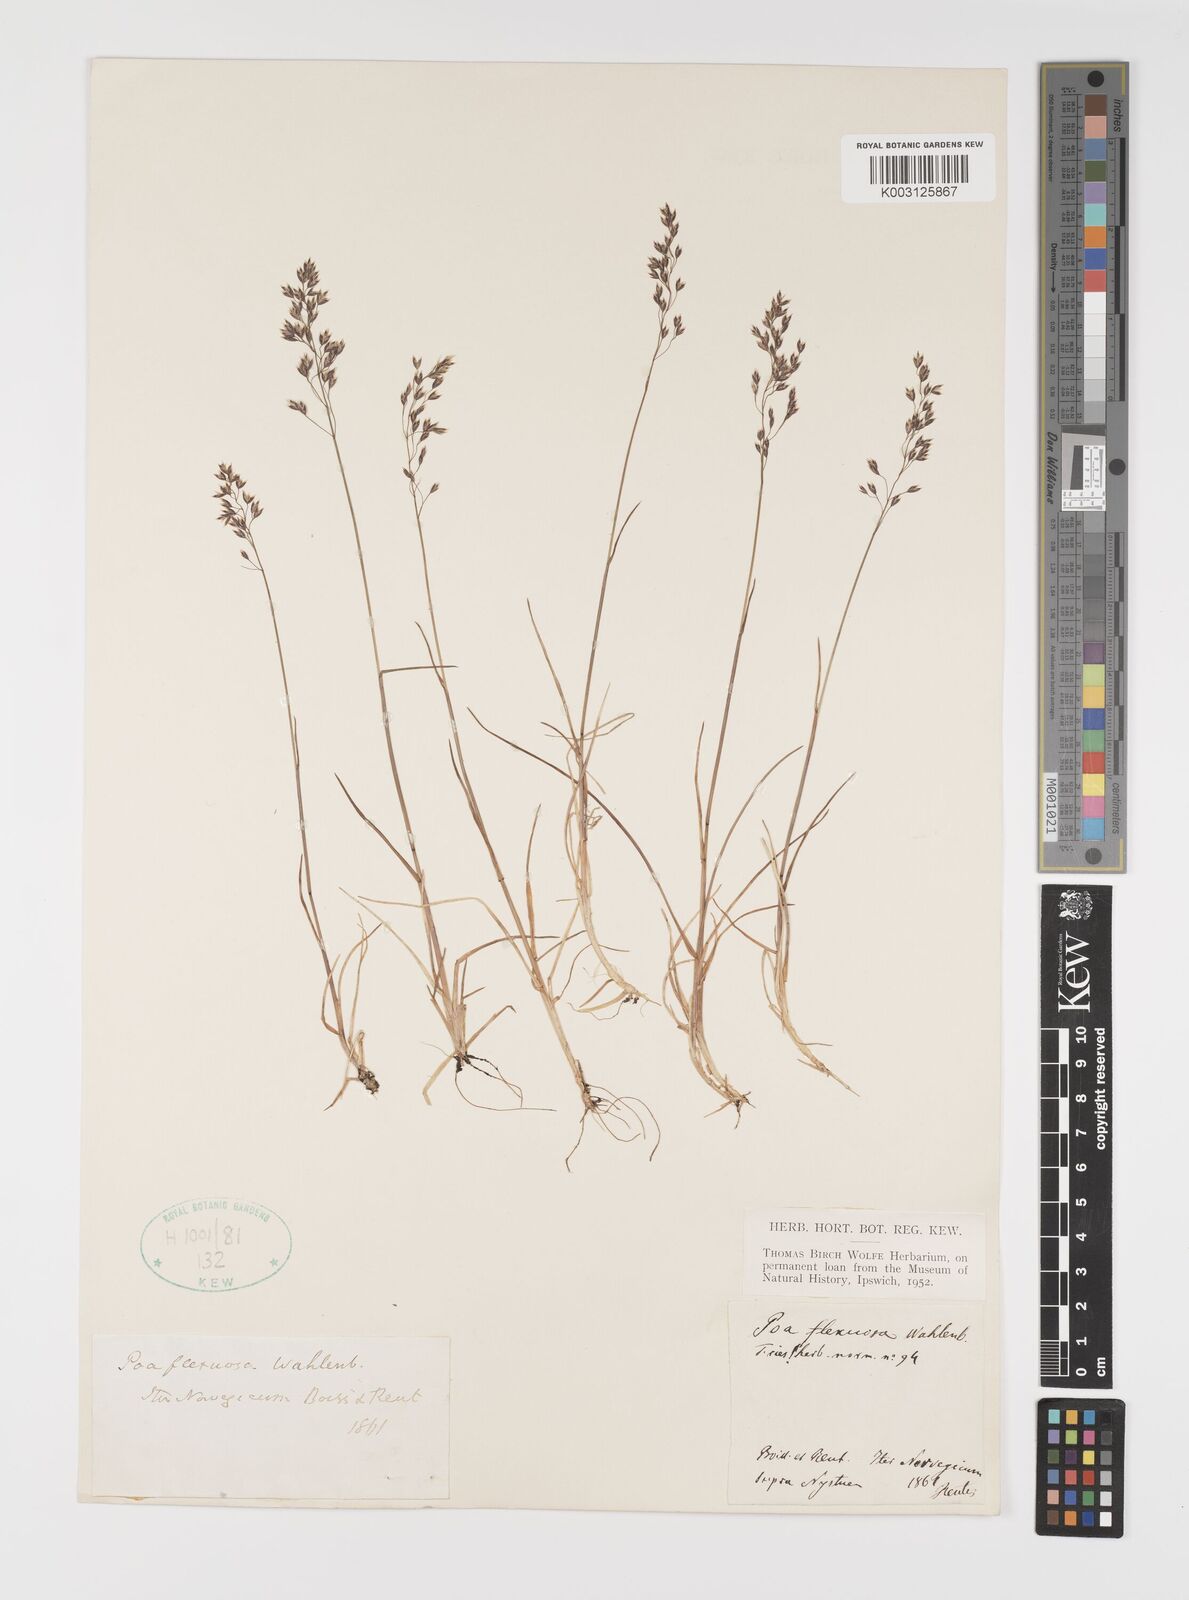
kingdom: Plantae
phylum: Tracheophyta
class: Liliopsida
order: Poales
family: Poaceae
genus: Eragrostis
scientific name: Eragrostis cilianensis
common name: Stinkgrass
